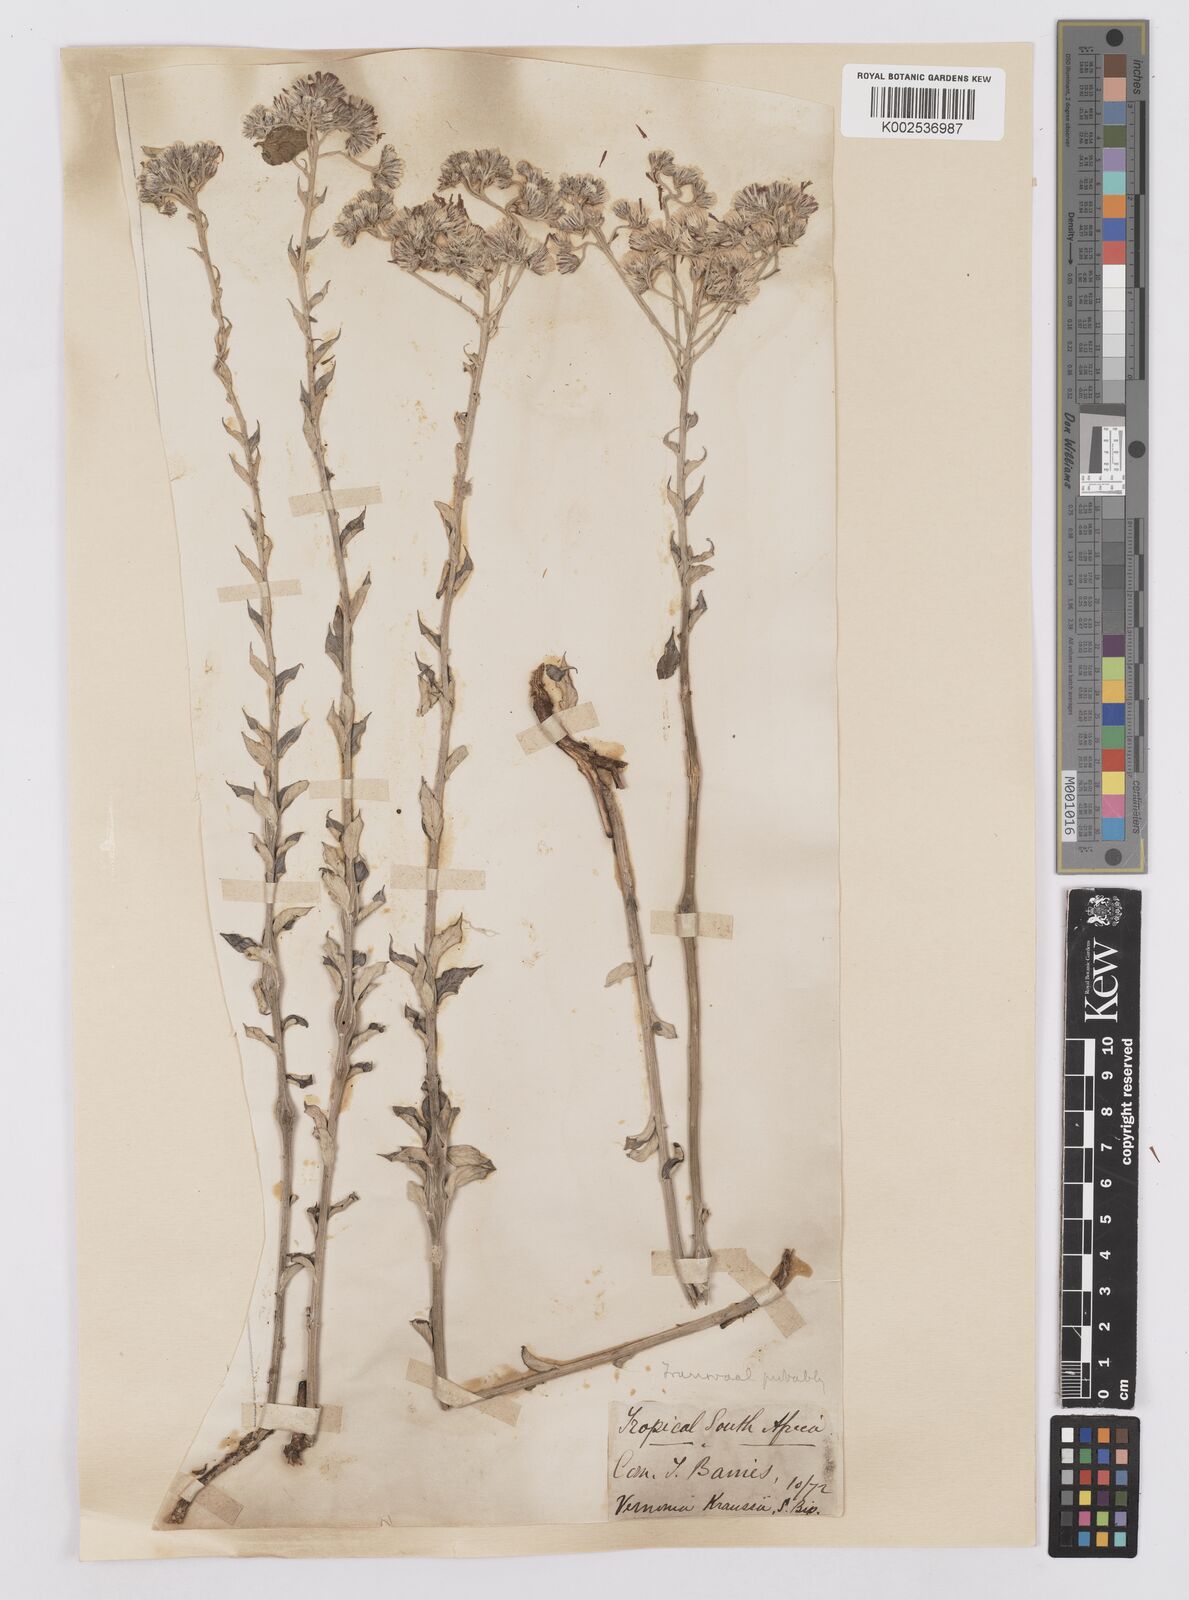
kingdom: Plantae
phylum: Tracheophyta
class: Magnoliopsida
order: Asterales
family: Asteraceae
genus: Hilliardiella
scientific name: Hilliardiella oligocephala
